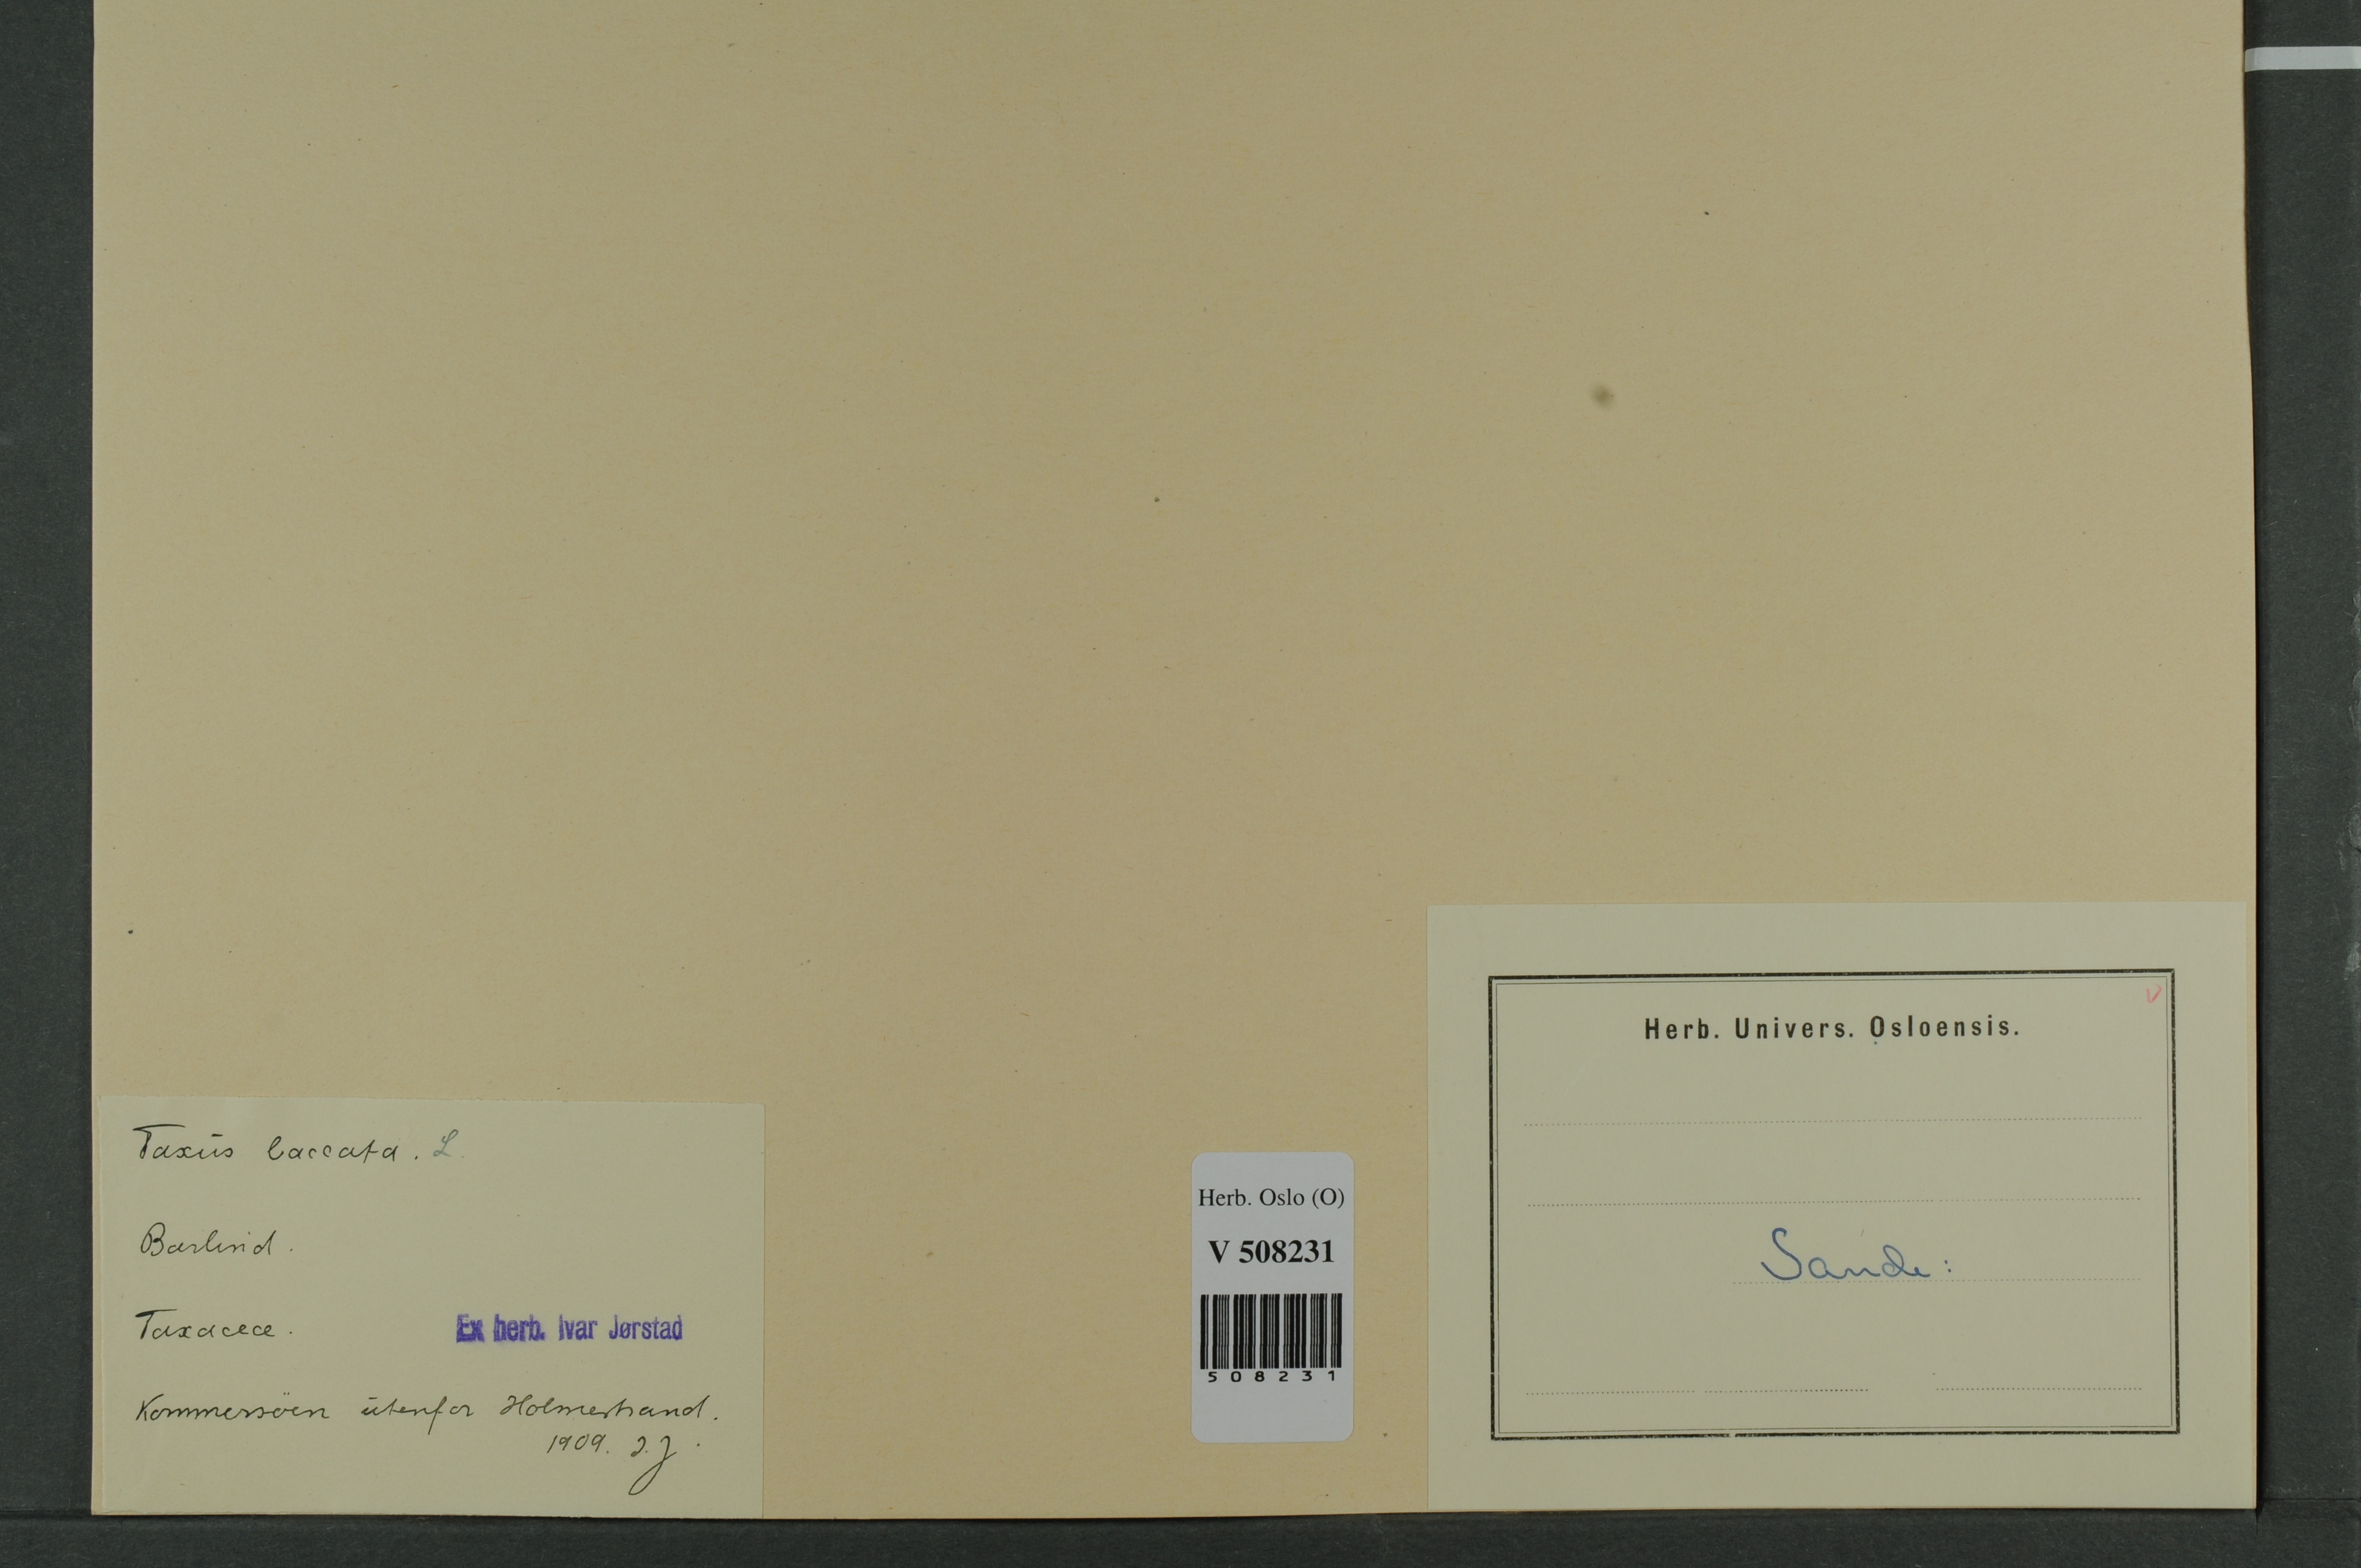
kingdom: Plantae
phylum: Tracheophyta
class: Pinopsida
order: Pinales
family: Taxaceae
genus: Taxus
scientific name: Taxus baccata
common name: Yew
